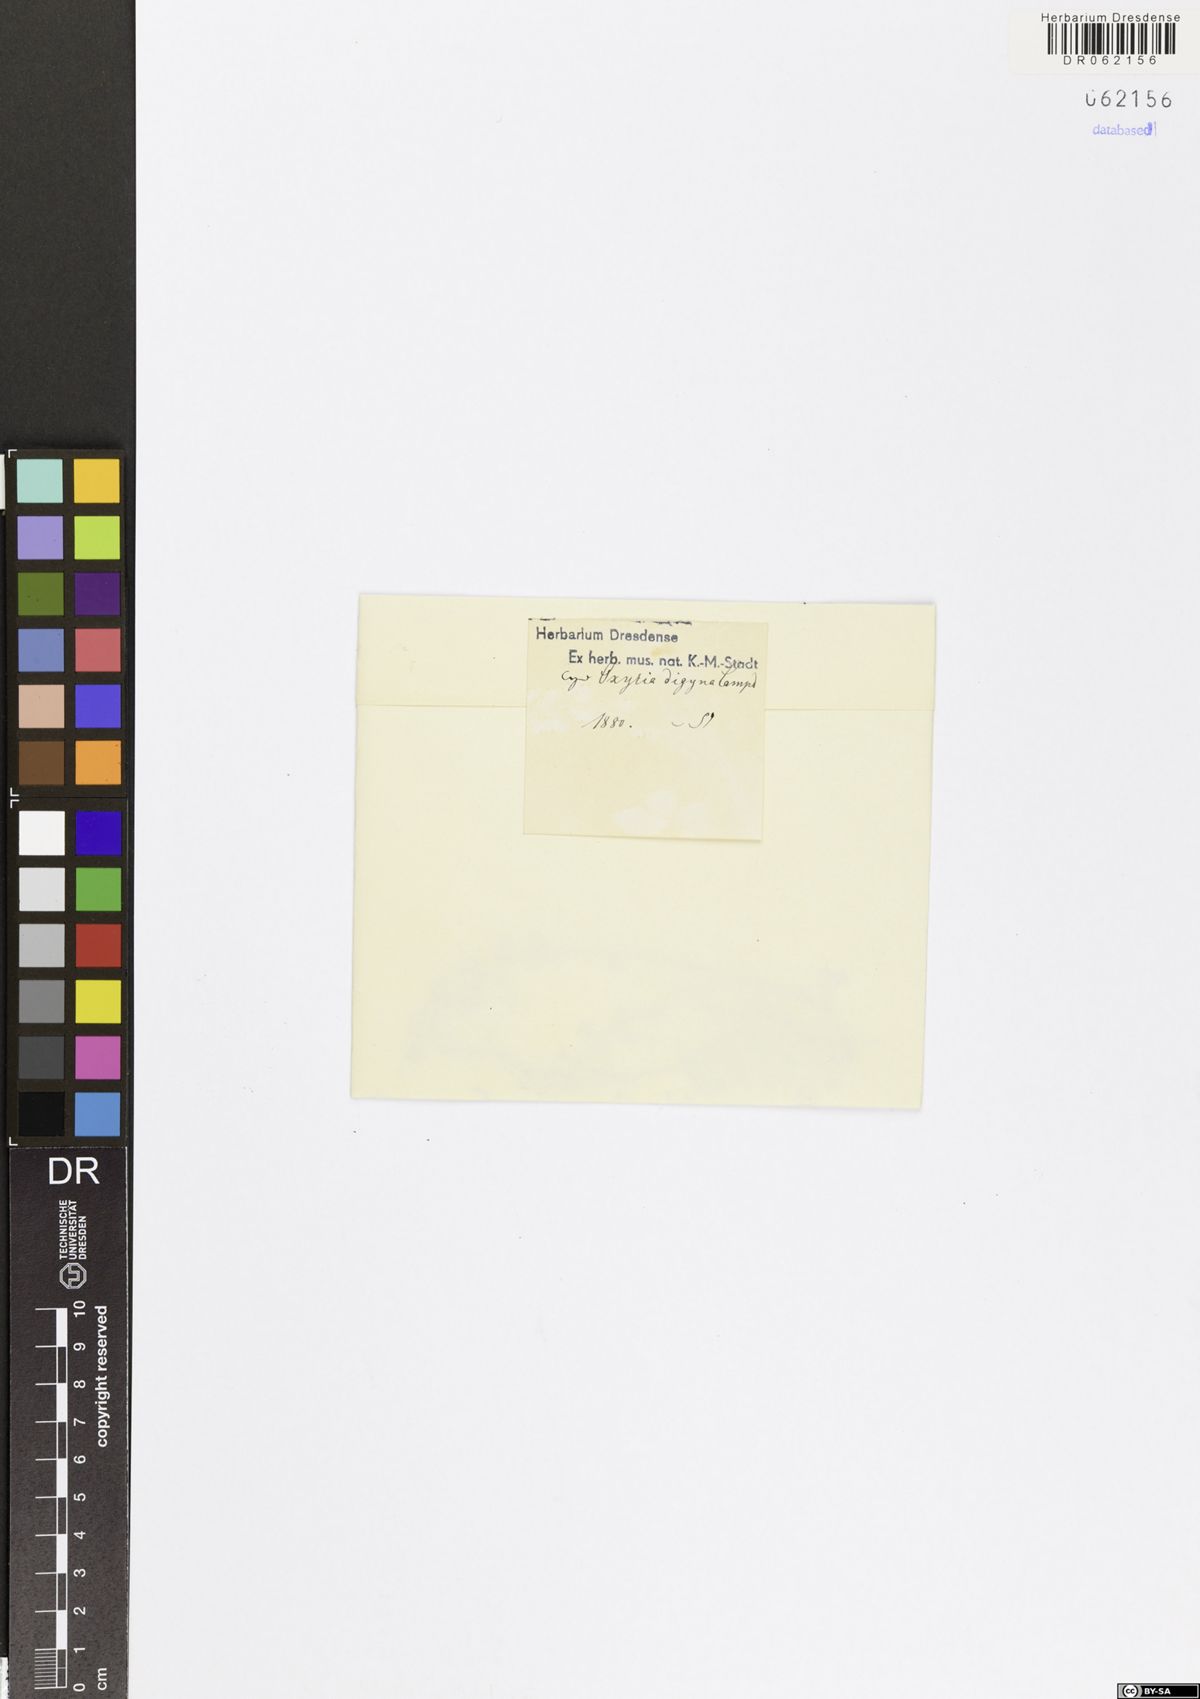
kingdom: Plantae
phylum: Tracheophyta
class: Magnoliopsida
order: Caryophyllales
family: Polygonaceae
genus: Oxyria
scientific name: Oxyria digyna
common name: Alpine mountain-sorrel
